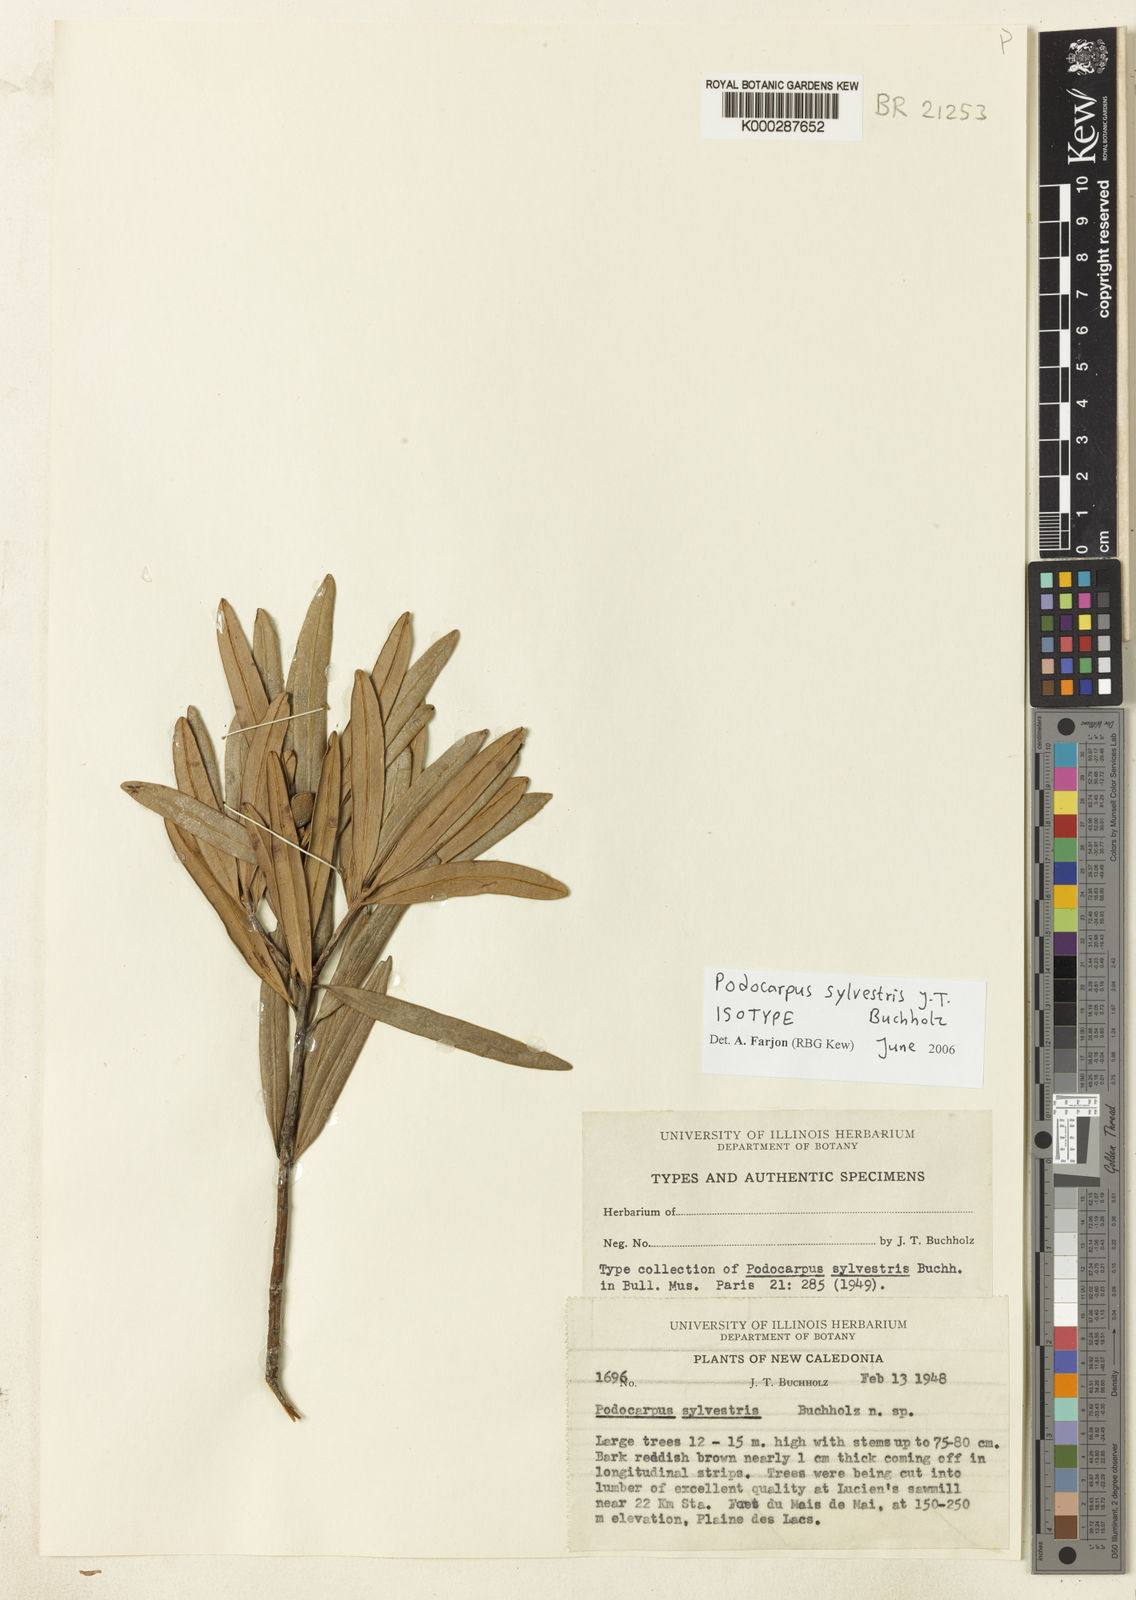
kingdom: Plantae
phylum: Tracheophyta
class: Pinopsida
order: Pinales
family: Podocarpaceae
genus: Podocarpus
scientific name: Podocarpus sylvestris
